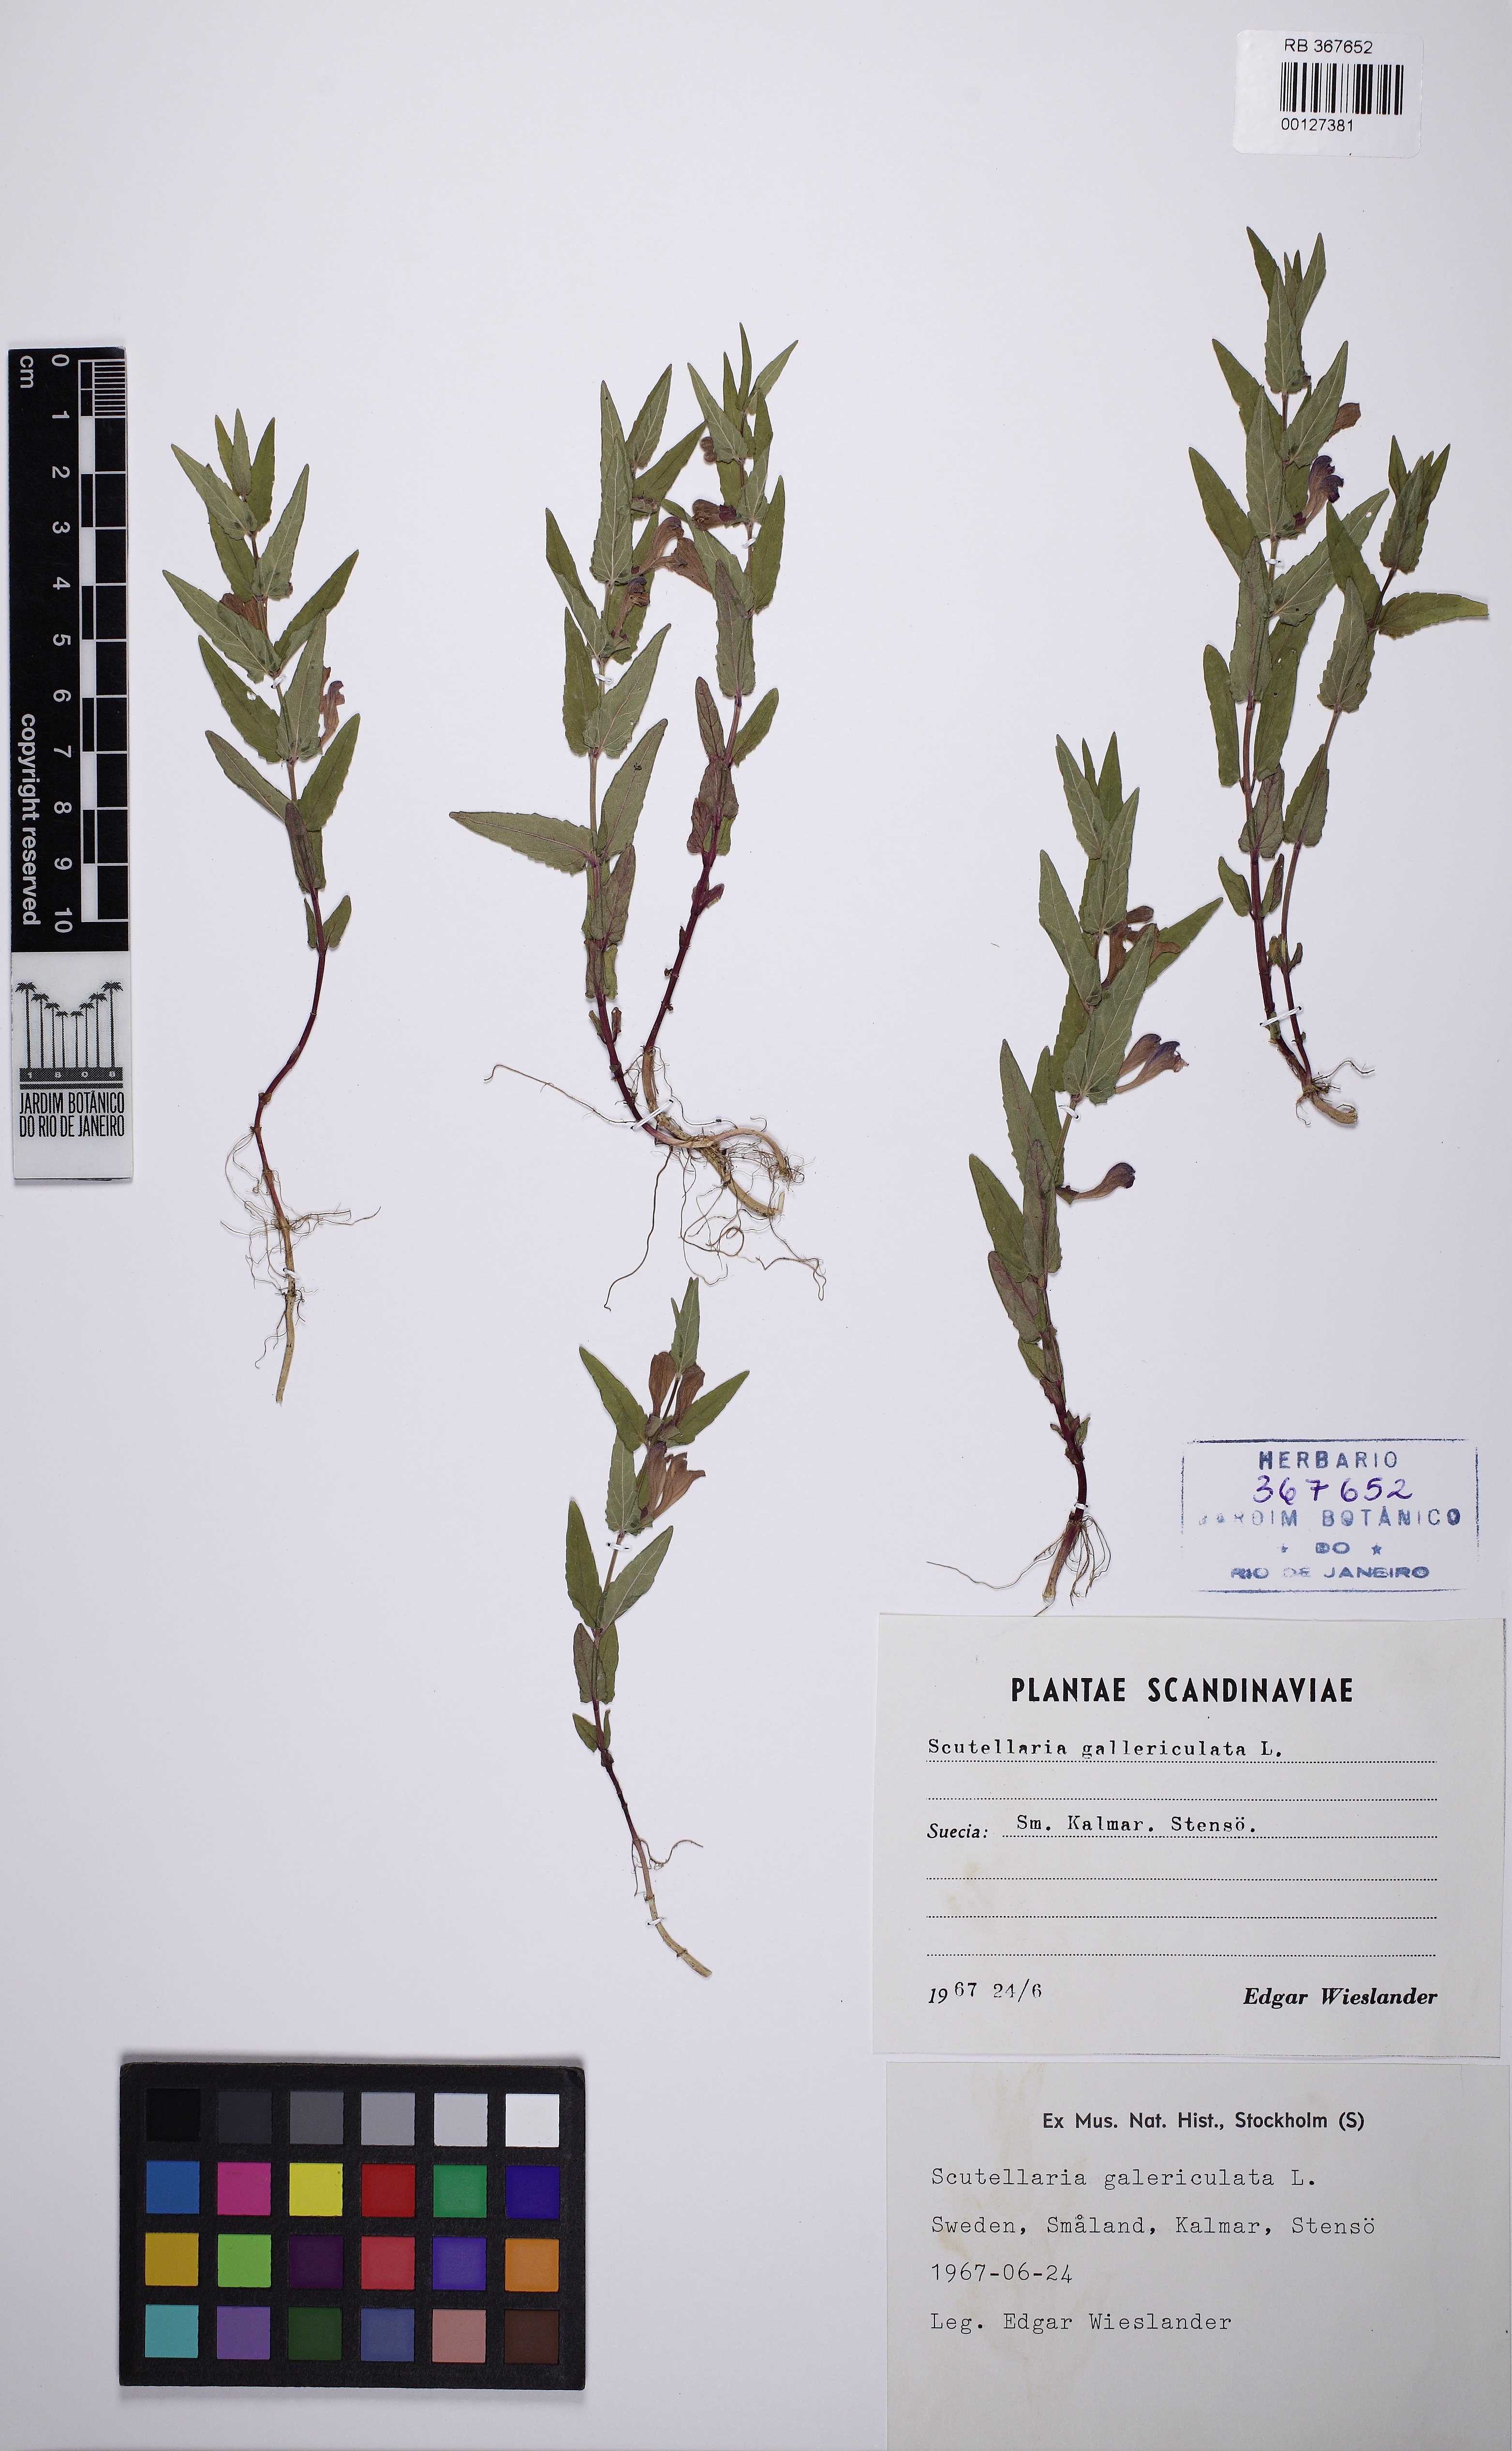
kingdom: Plantae
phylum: Tracheophyta
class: Magnoliopsida
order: Lamiales
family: Lamiaceae
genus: Scutellaria
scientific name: Scutellaria galericulata
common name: Skullcap
